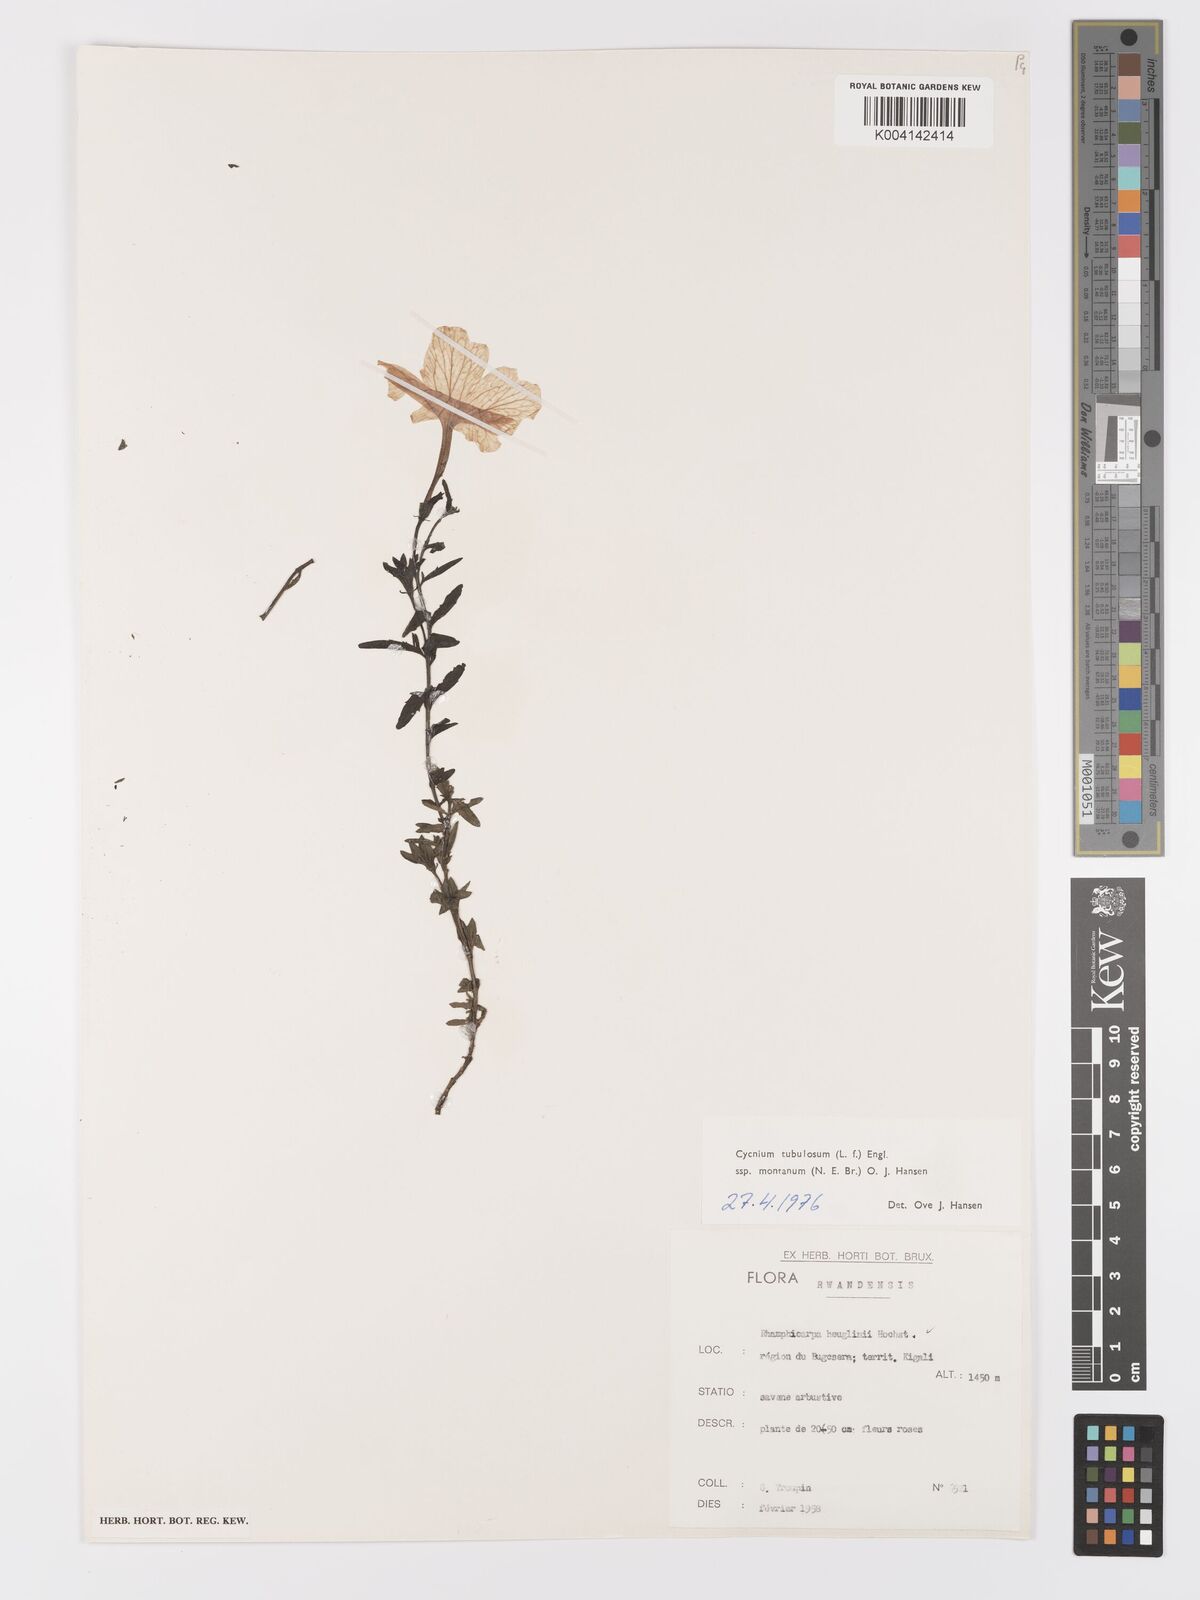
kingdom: Plantae
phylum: Tracheophyta
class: Magnoliopsida
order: Lamiales
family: Orobanchaceae
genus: Cycnium
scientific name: Cycnium tubulosum
